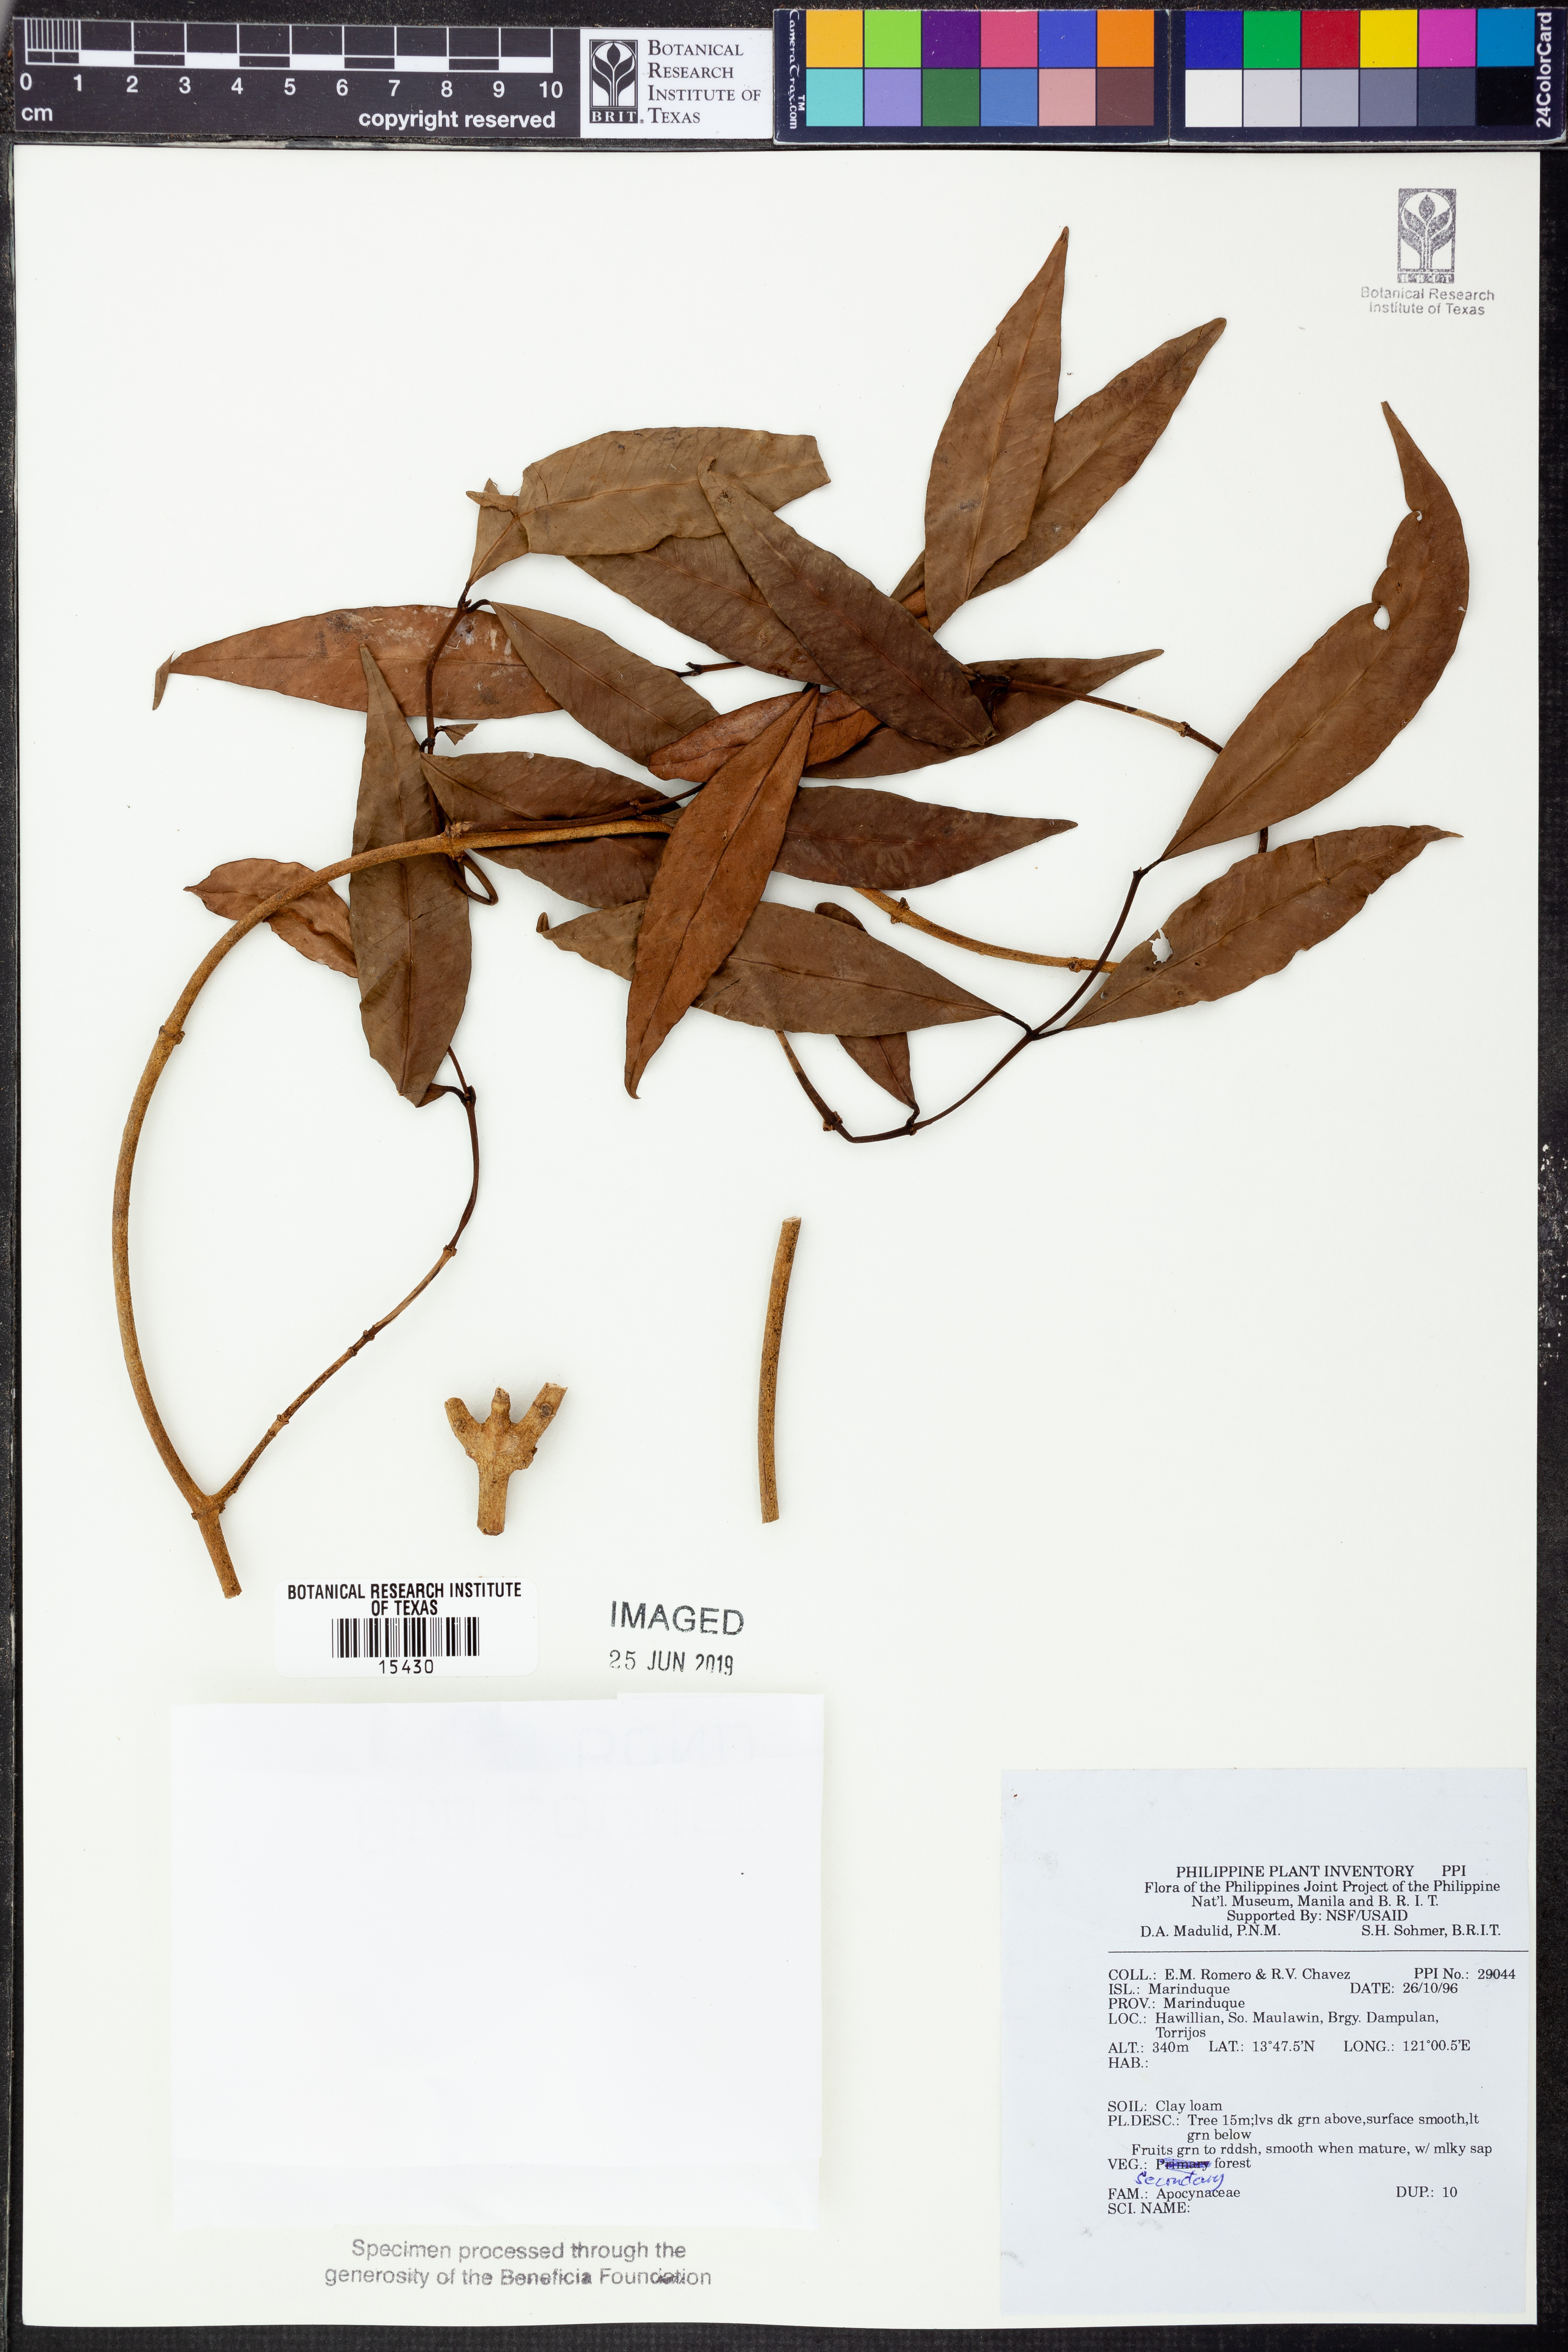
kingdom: Plantae
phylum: Tracheophyta
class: Magnoliopsida
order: Gentianales
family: Apocynaceae
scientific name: Apocynaceae
